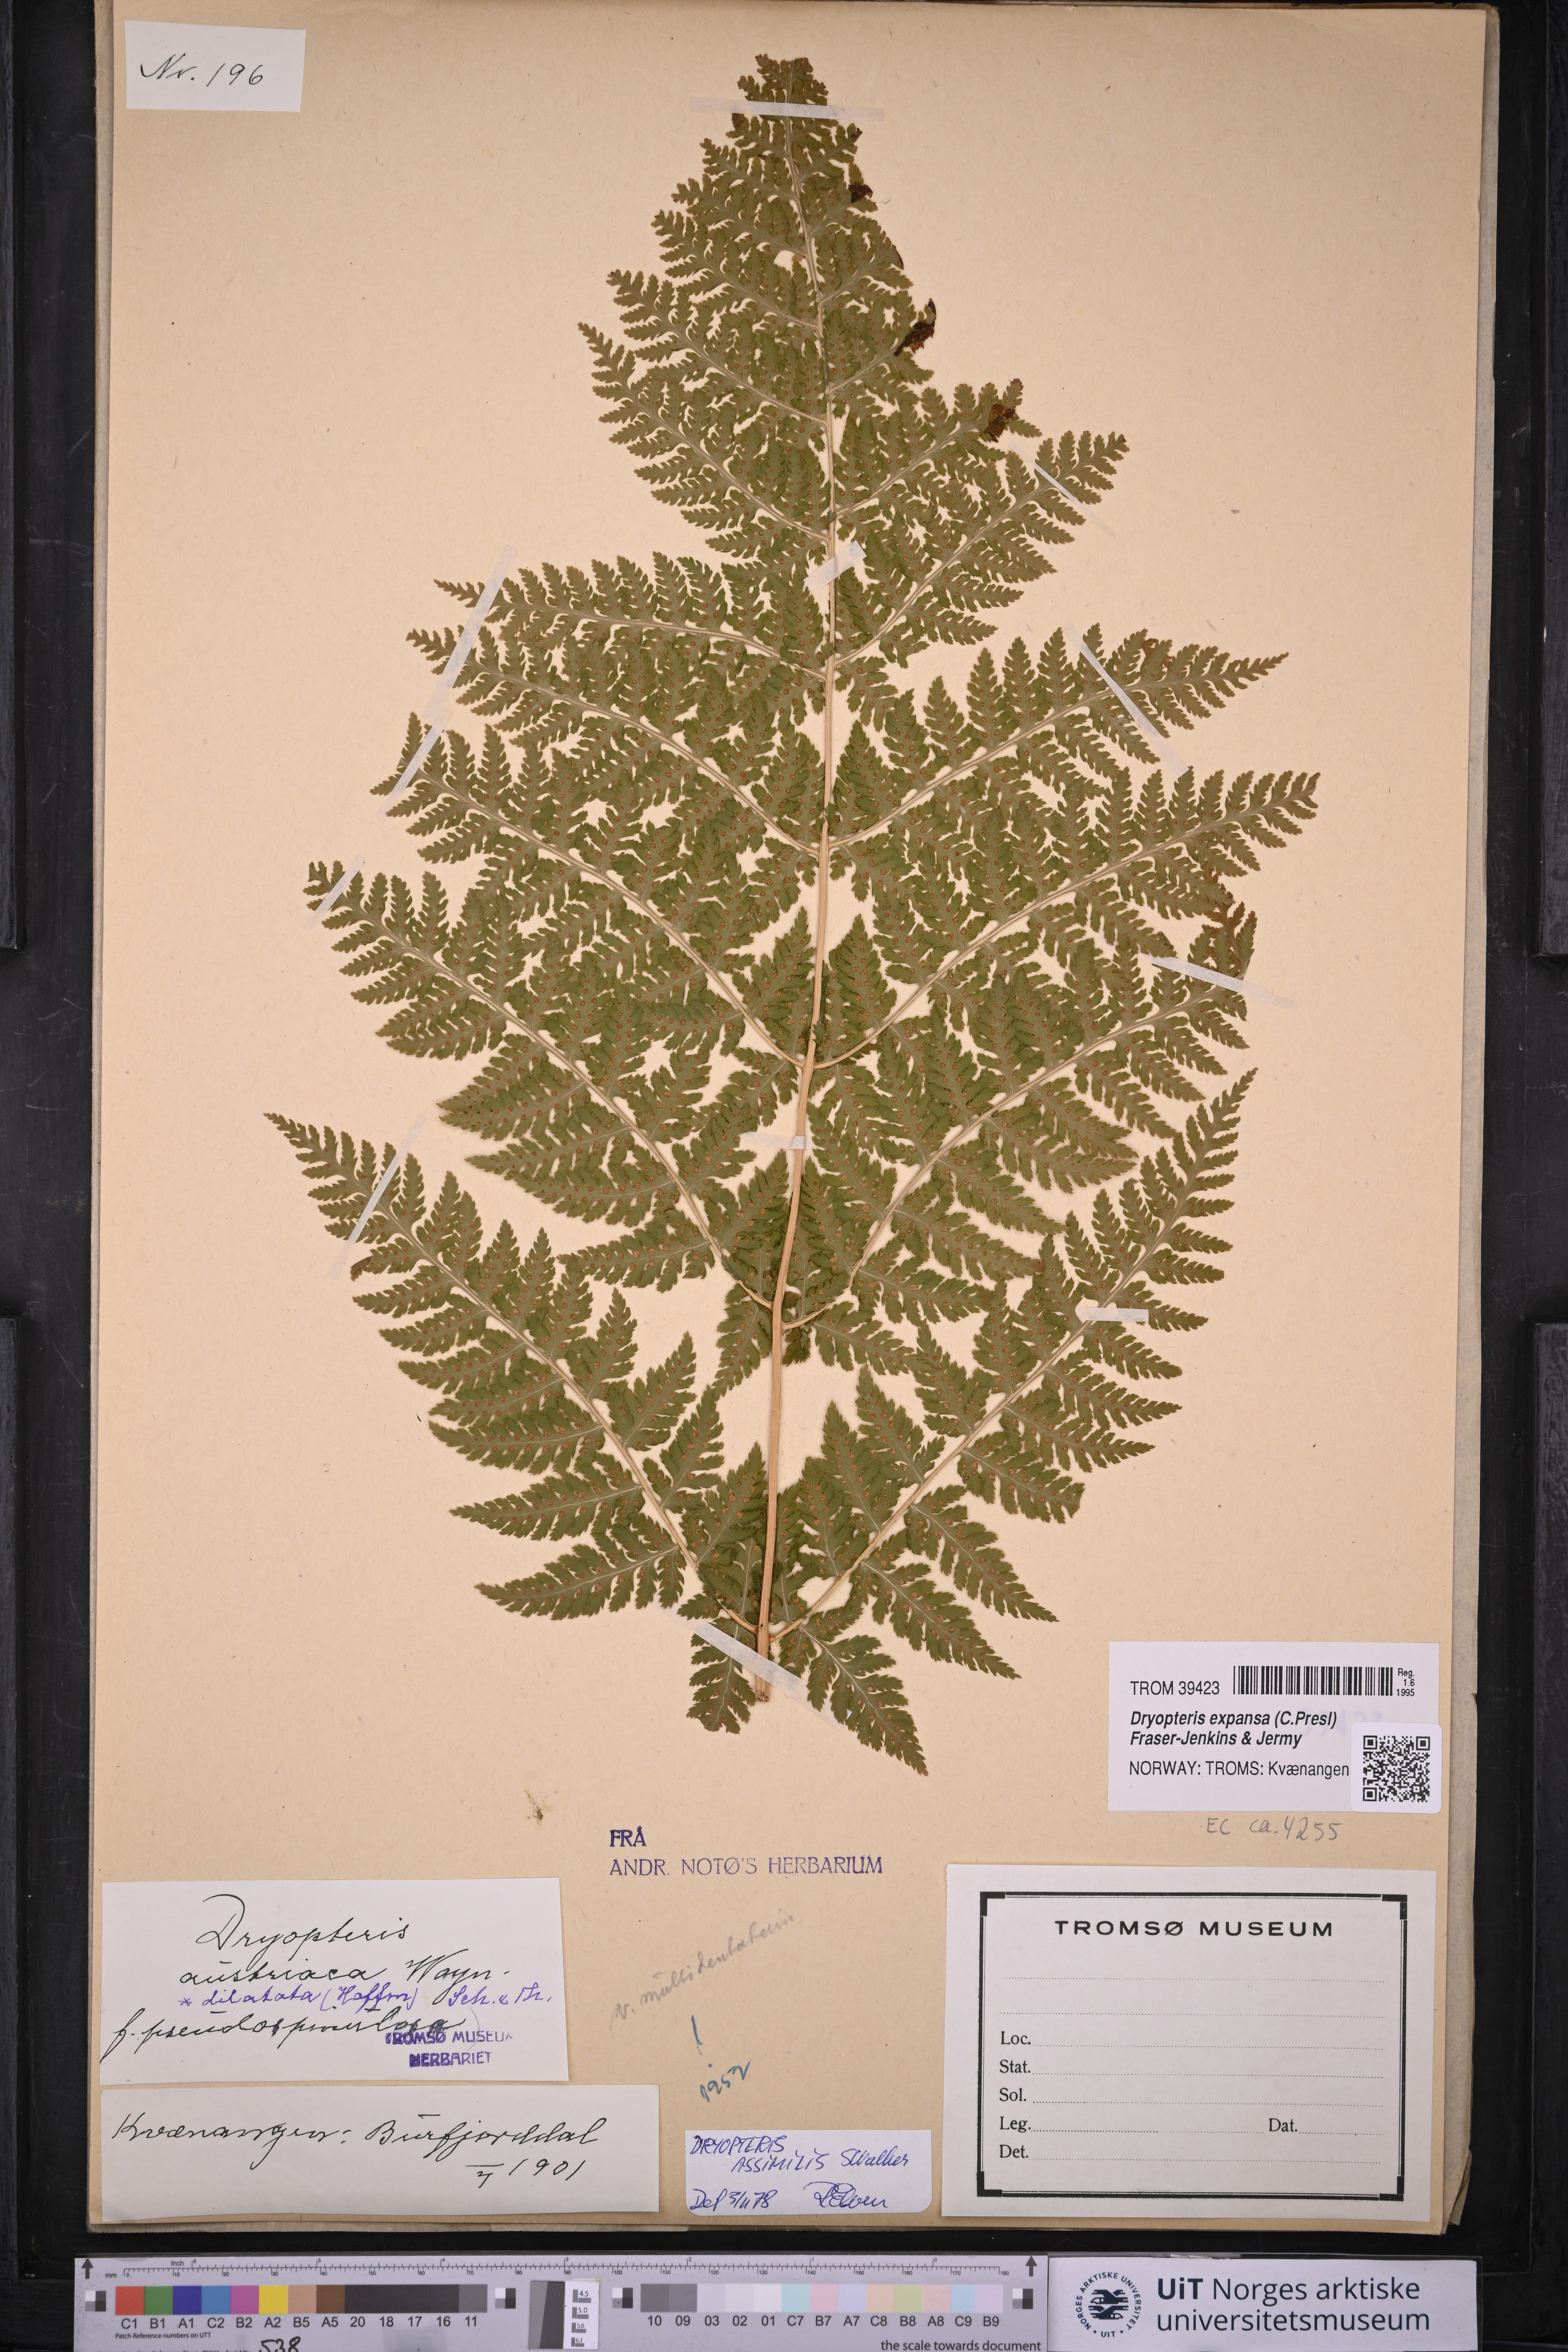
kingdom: Plantae
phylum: Tracheophyta
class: Polypodiopsida
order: Polypodiales
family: Dryopteridaceae
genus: Dryopteris
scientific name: Dryopteris expansa
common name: Northern buckler fern
